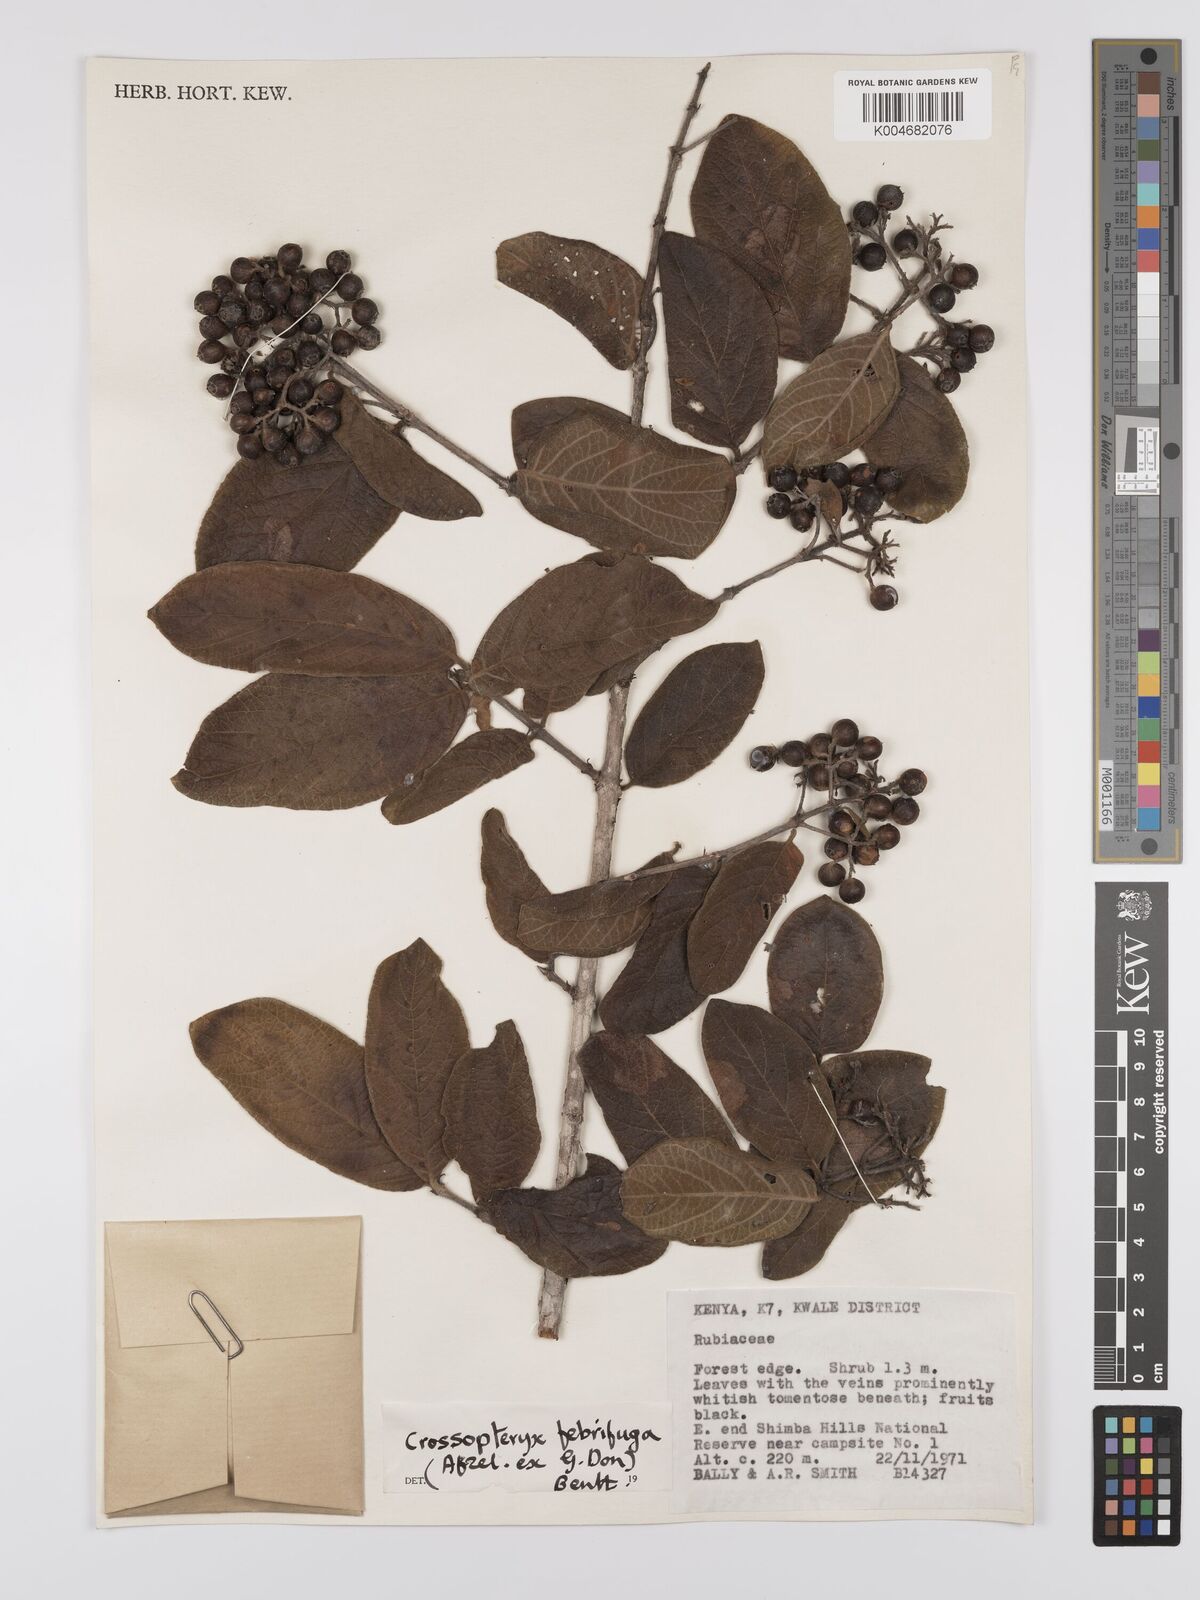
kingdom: Plantae
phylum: Tracheophyta
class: Magnoliopsida
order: Gentianales
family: Rubiaceae
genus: Crossopteryx
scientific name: Crossopteryx febrifuga
